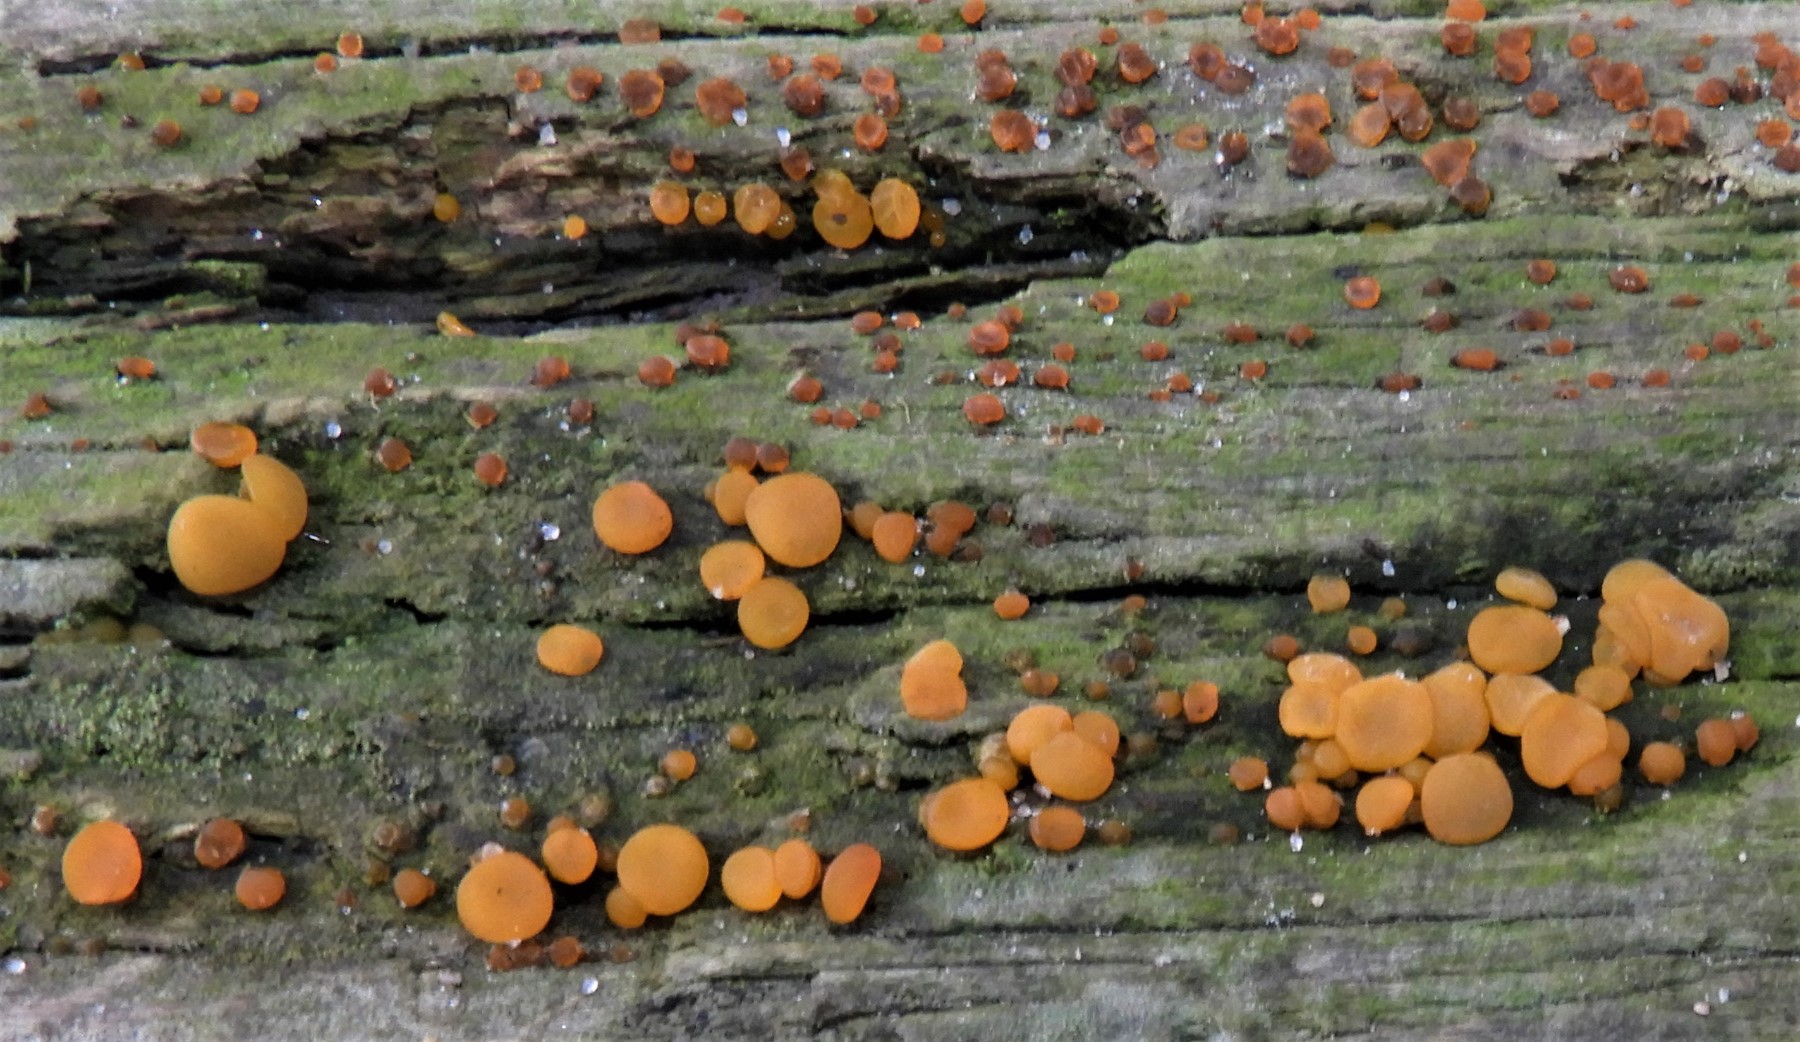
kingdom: Fungi
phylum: Basidiomycota
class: Dacrymycetes
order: Dacrymycetales
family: Dacrymycetaceae
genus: Dacrymyces
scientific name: Dacrymyces stillatus
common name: almindelig tåresvamp
